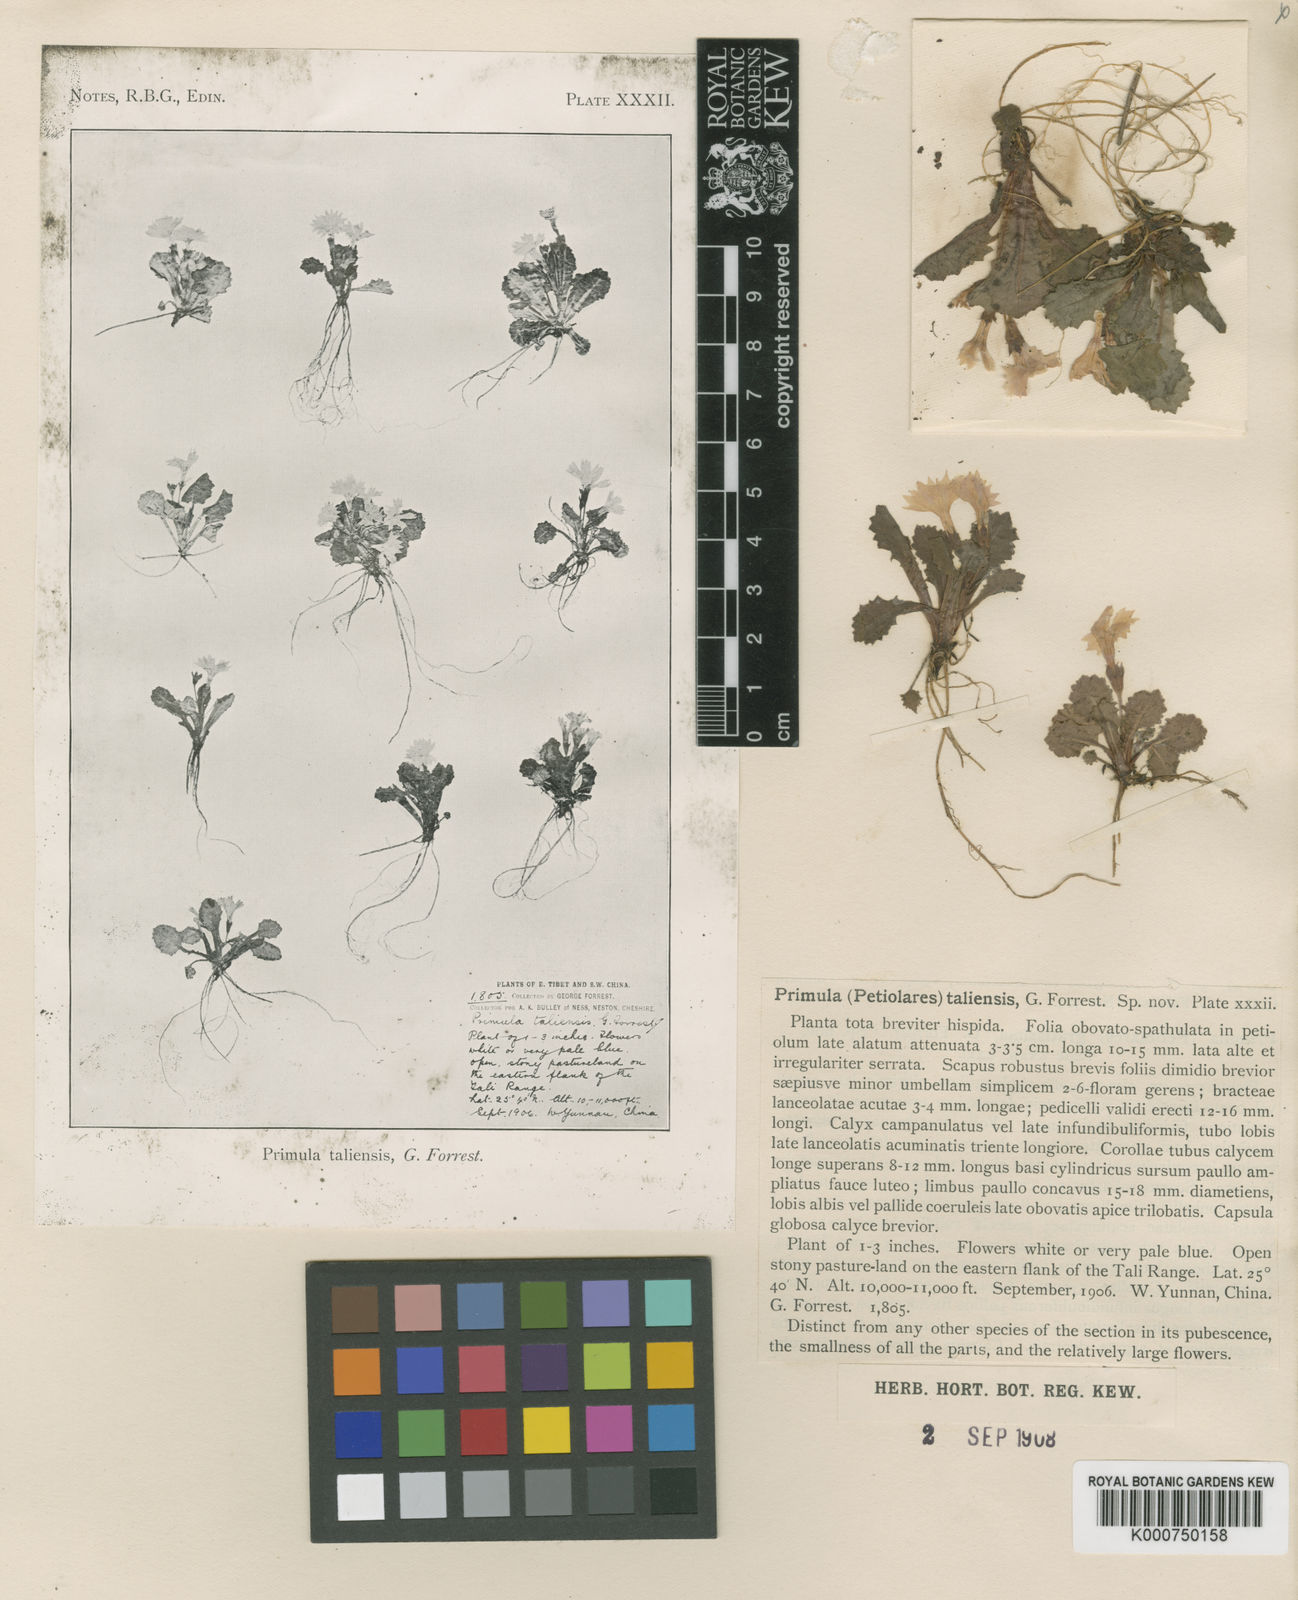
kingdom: Plantae
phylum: Tracheophyta
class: Magnoliopsida
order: Ericales
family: Primulaceae
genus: Primula
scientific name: Primula taliensis
